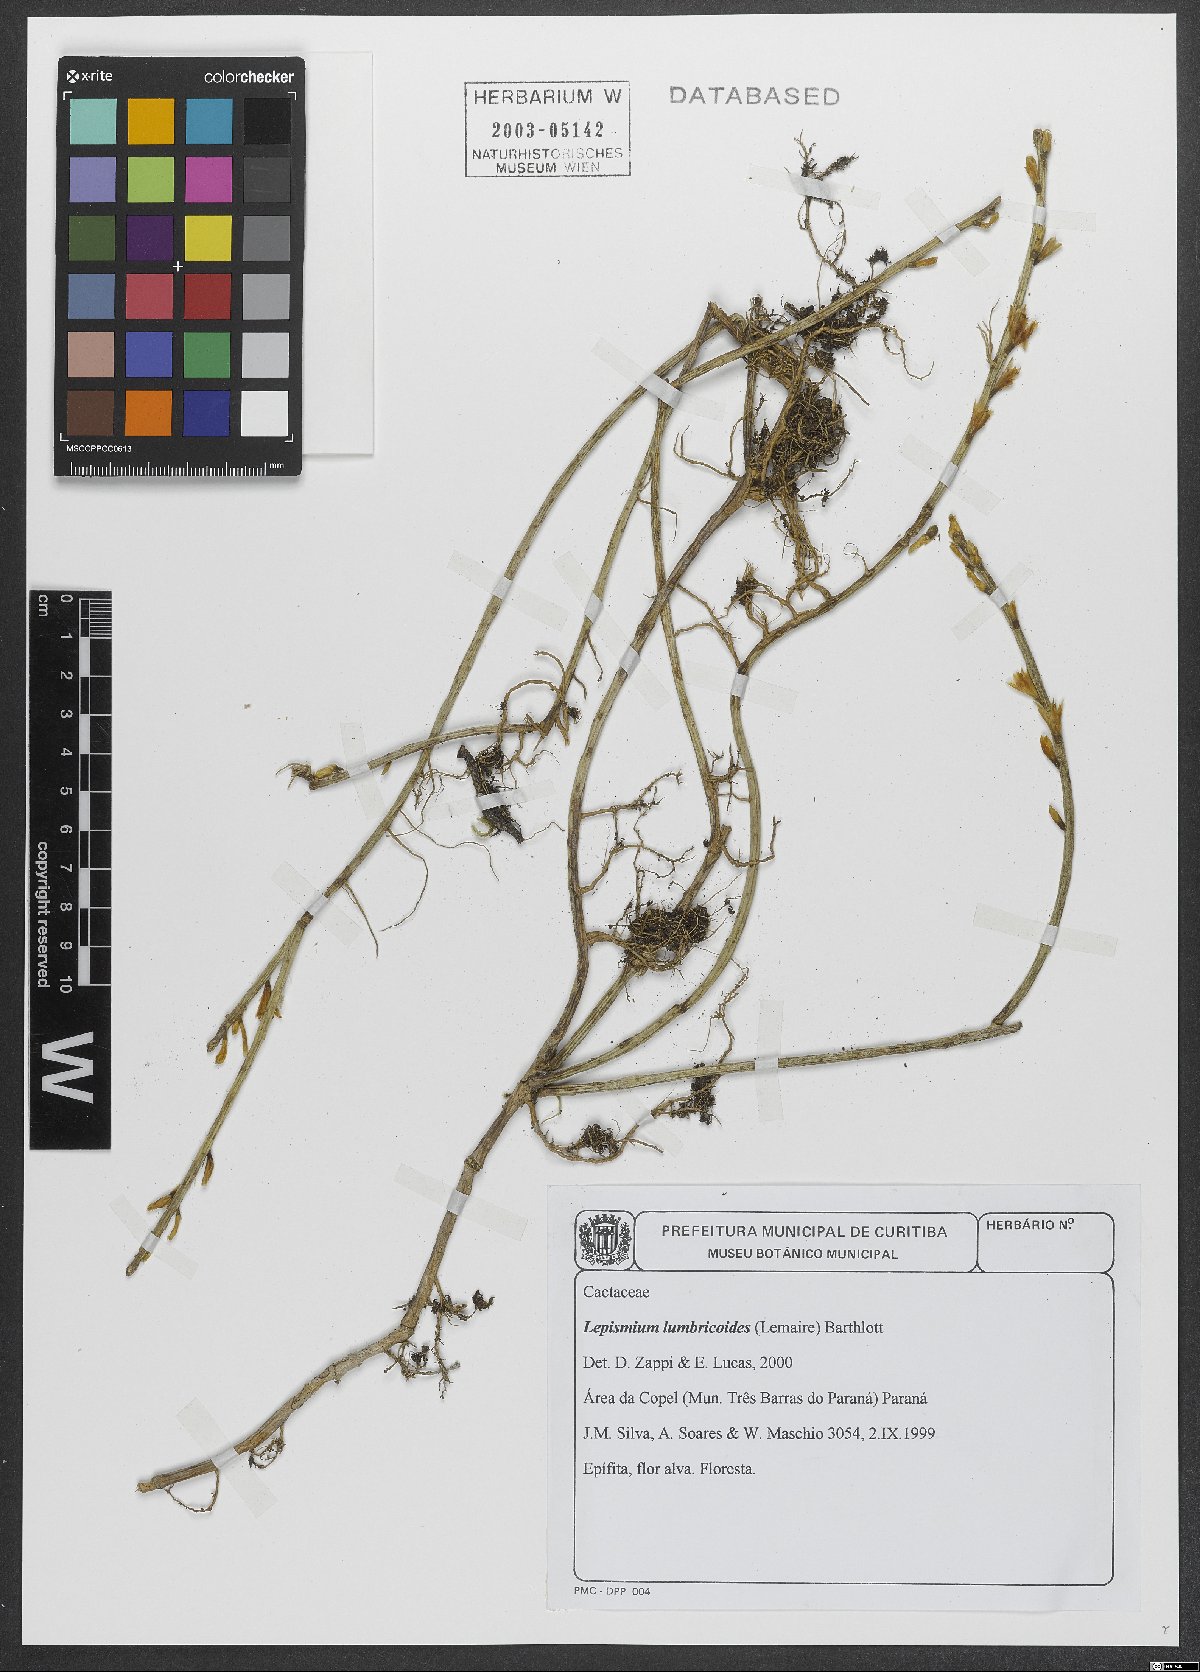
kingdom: Plantae
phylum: Tracheophyta
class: Magnoliopsida
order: Caryophyllales
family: Cactaceae
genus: Lepismium
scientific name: Lepismium lumbricoides
